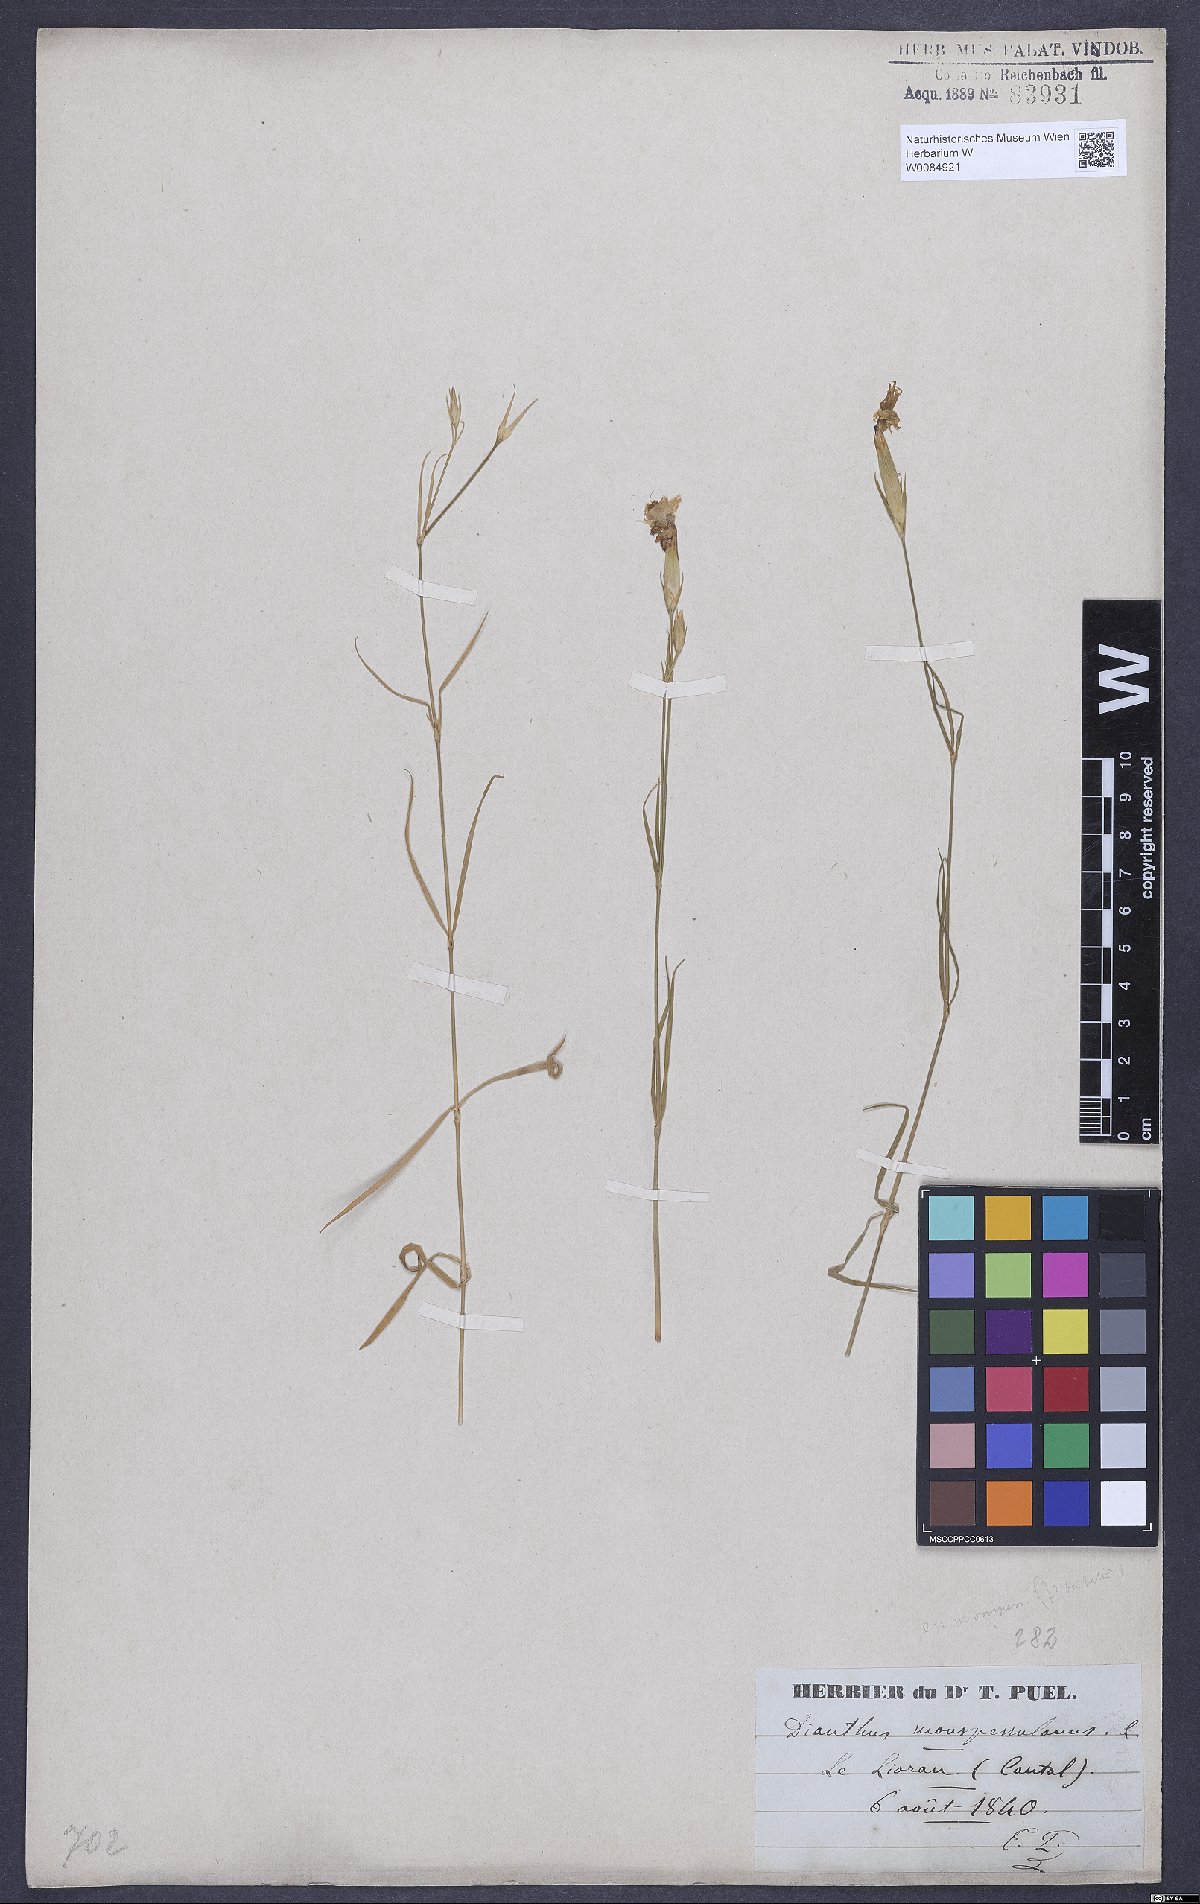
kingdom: Plantae
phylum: Tracheophyta
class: Magnoliopsida
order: Caryophyllales
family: Caryophyllaceae
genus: Dianthus
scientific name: Dianthus hyssopifolius
